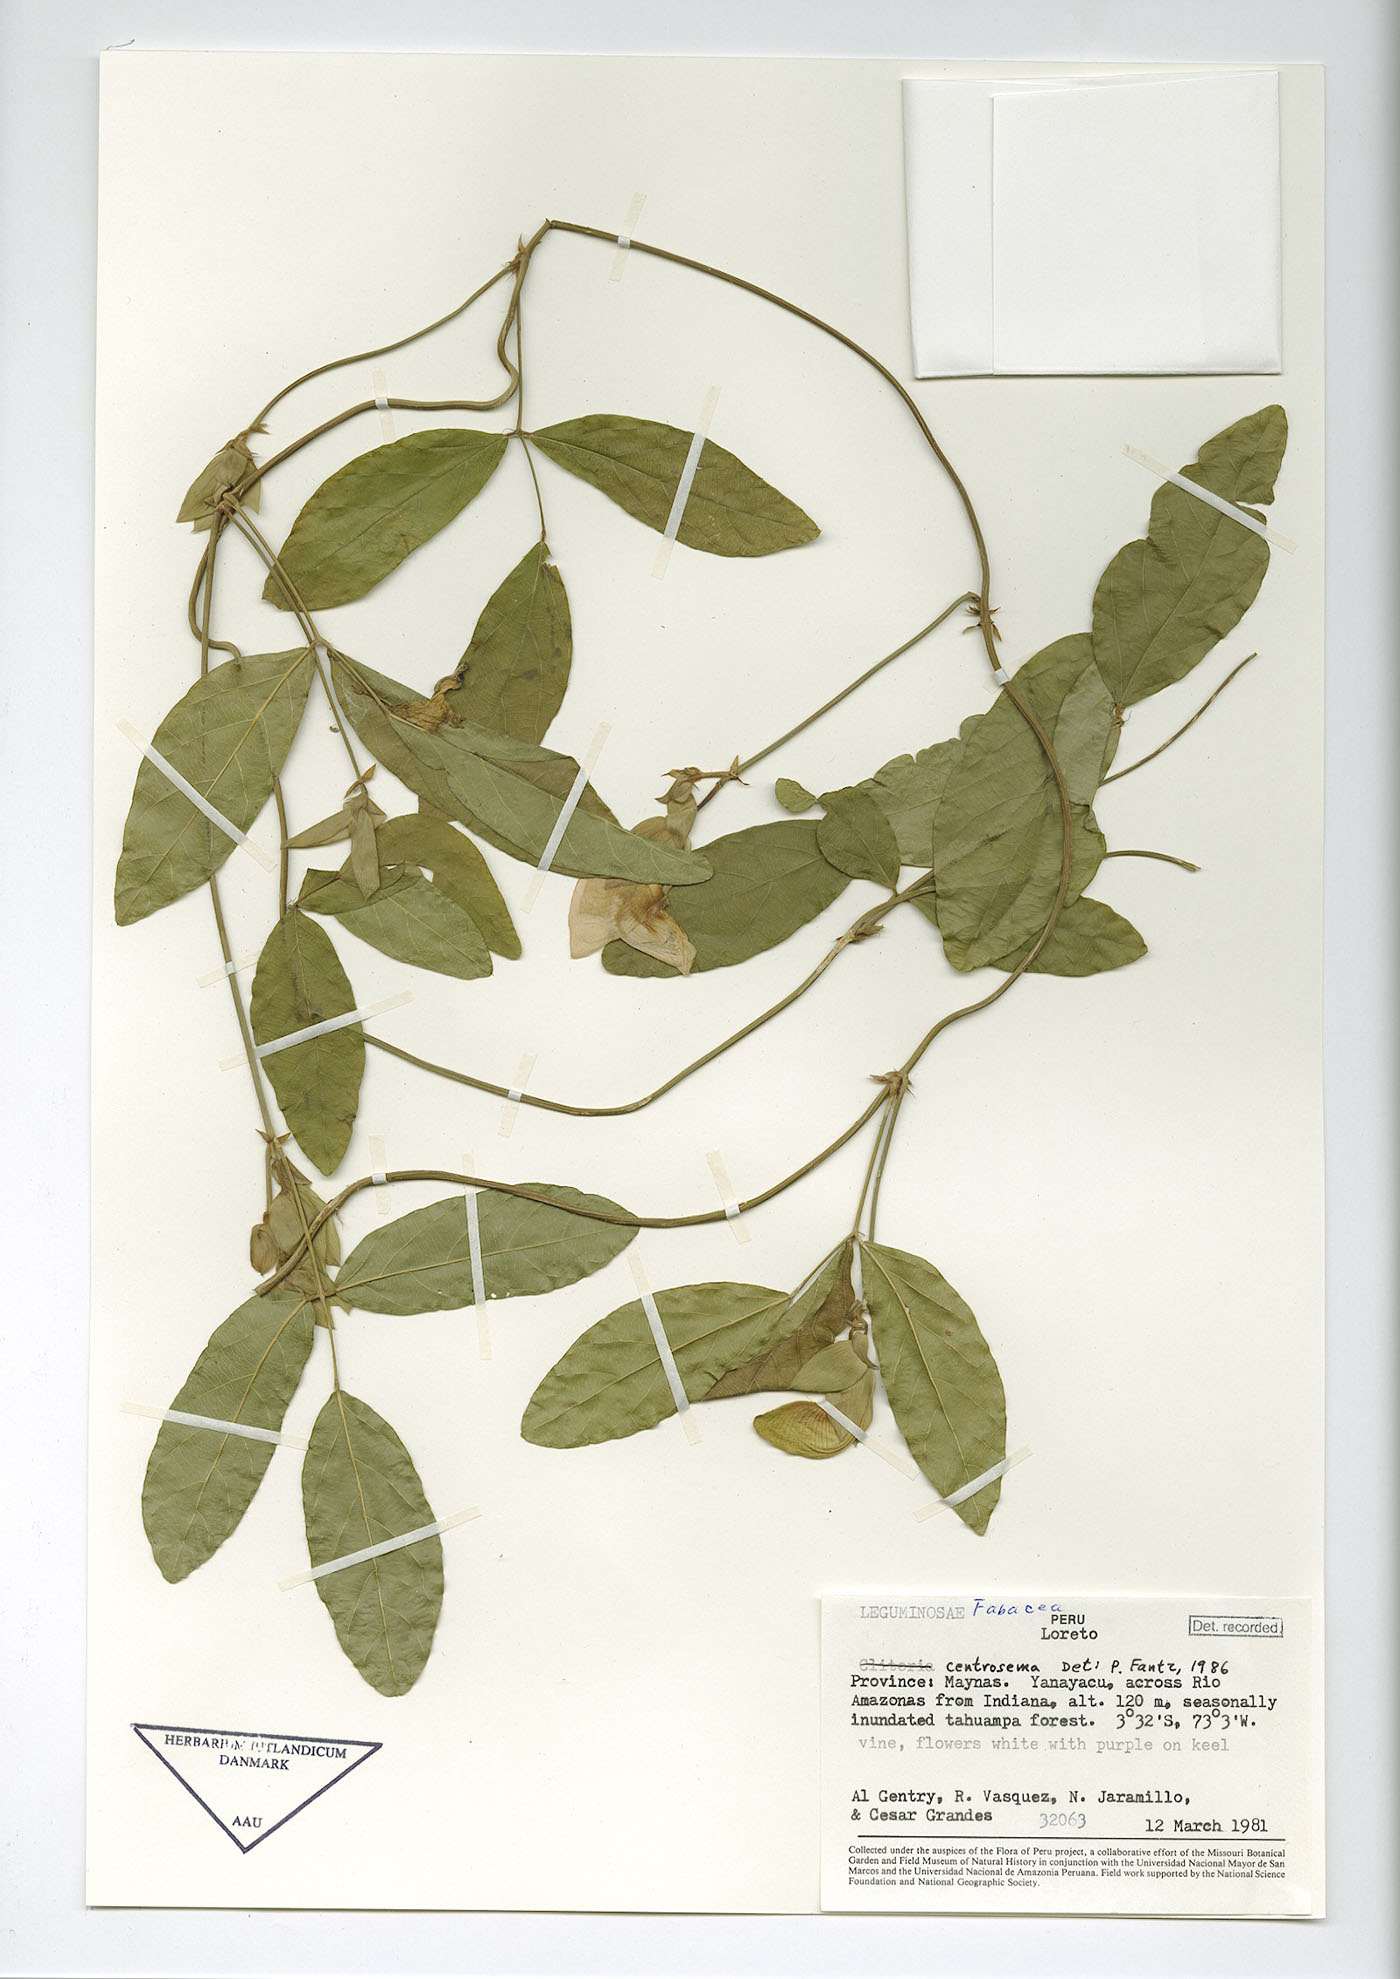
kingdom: Plantae
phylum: Tracheophyta
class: Magnoliopsida
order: Fabales
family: Fabaceae
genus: Centrosema
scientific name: Centrosema vexillatum
